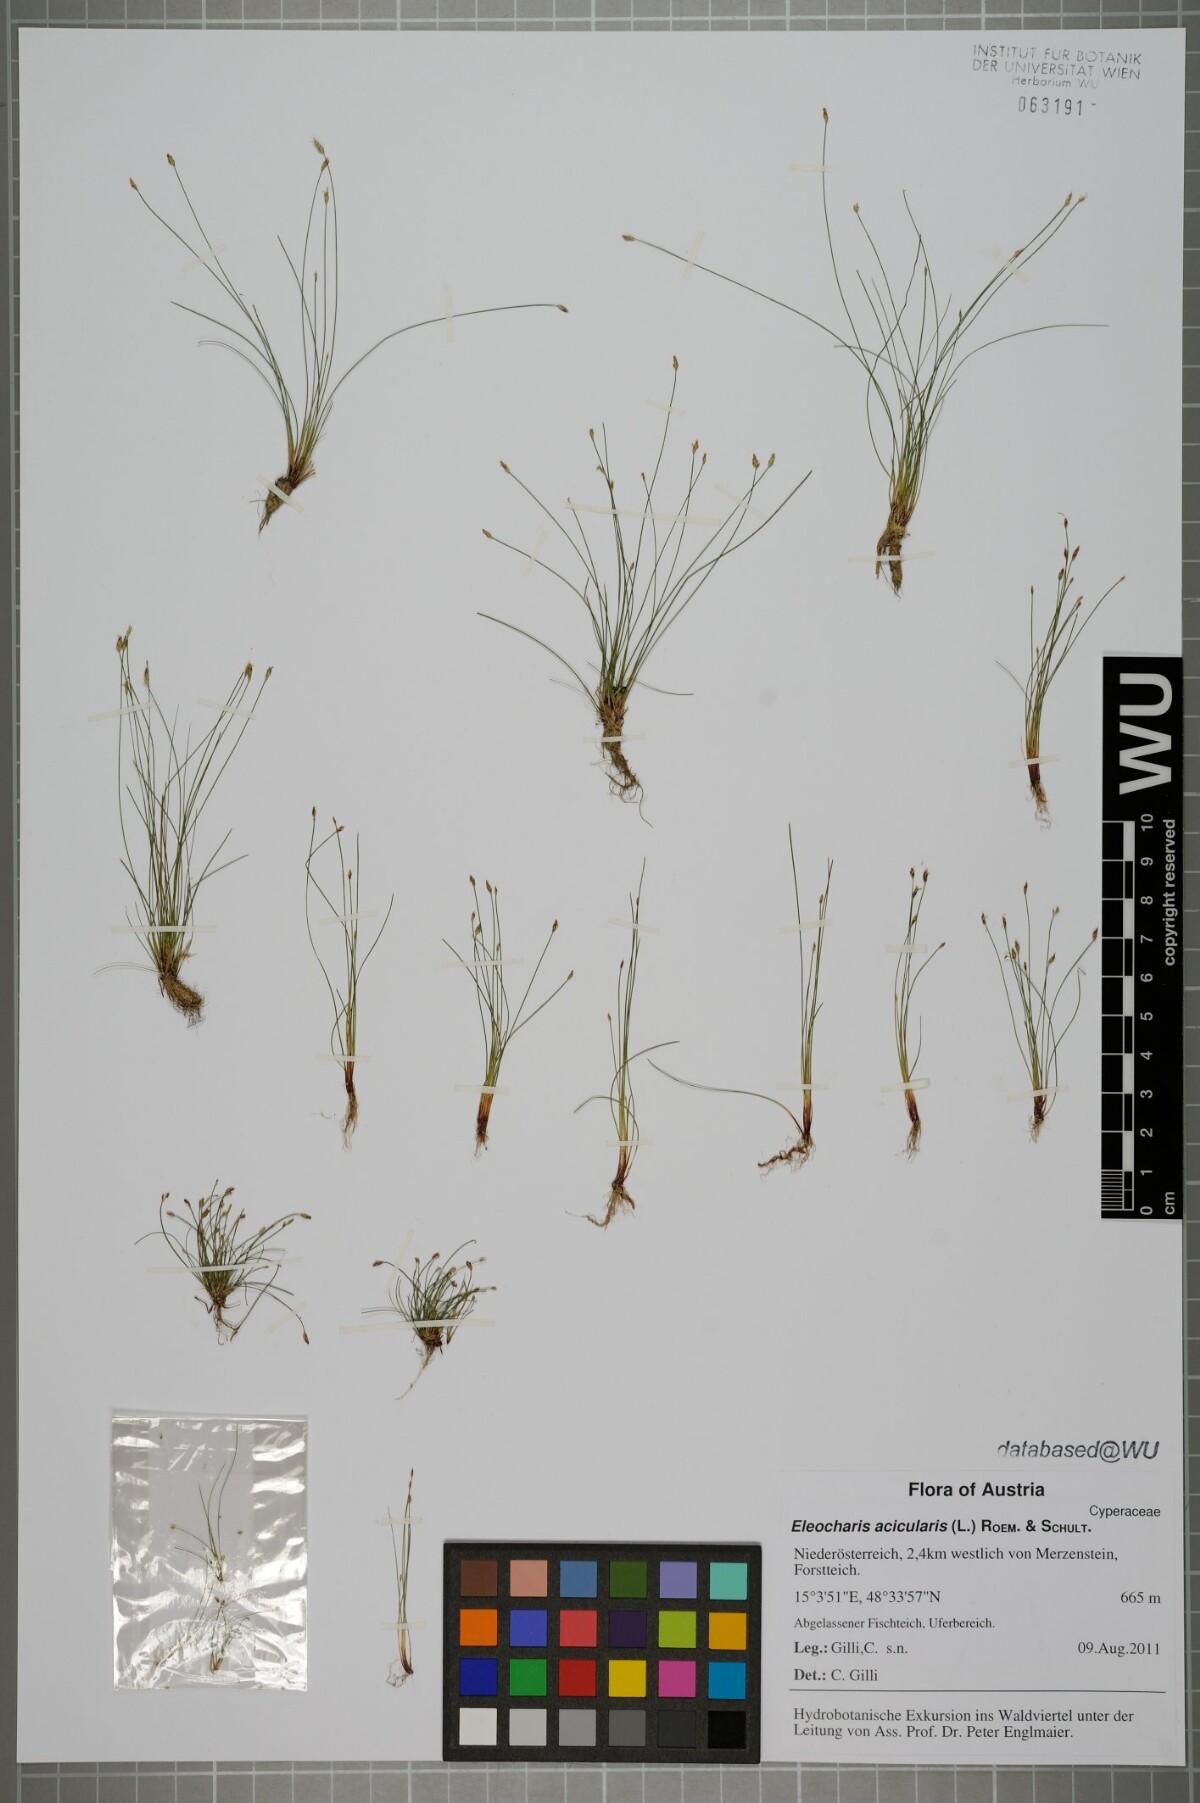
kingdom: Plantae
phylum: Tracheophyta
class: Liliopsida
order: Poales
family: Cyperaceae
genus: Eleocharis
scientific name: Eleocharis acicularis
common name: Needle spike-rush
